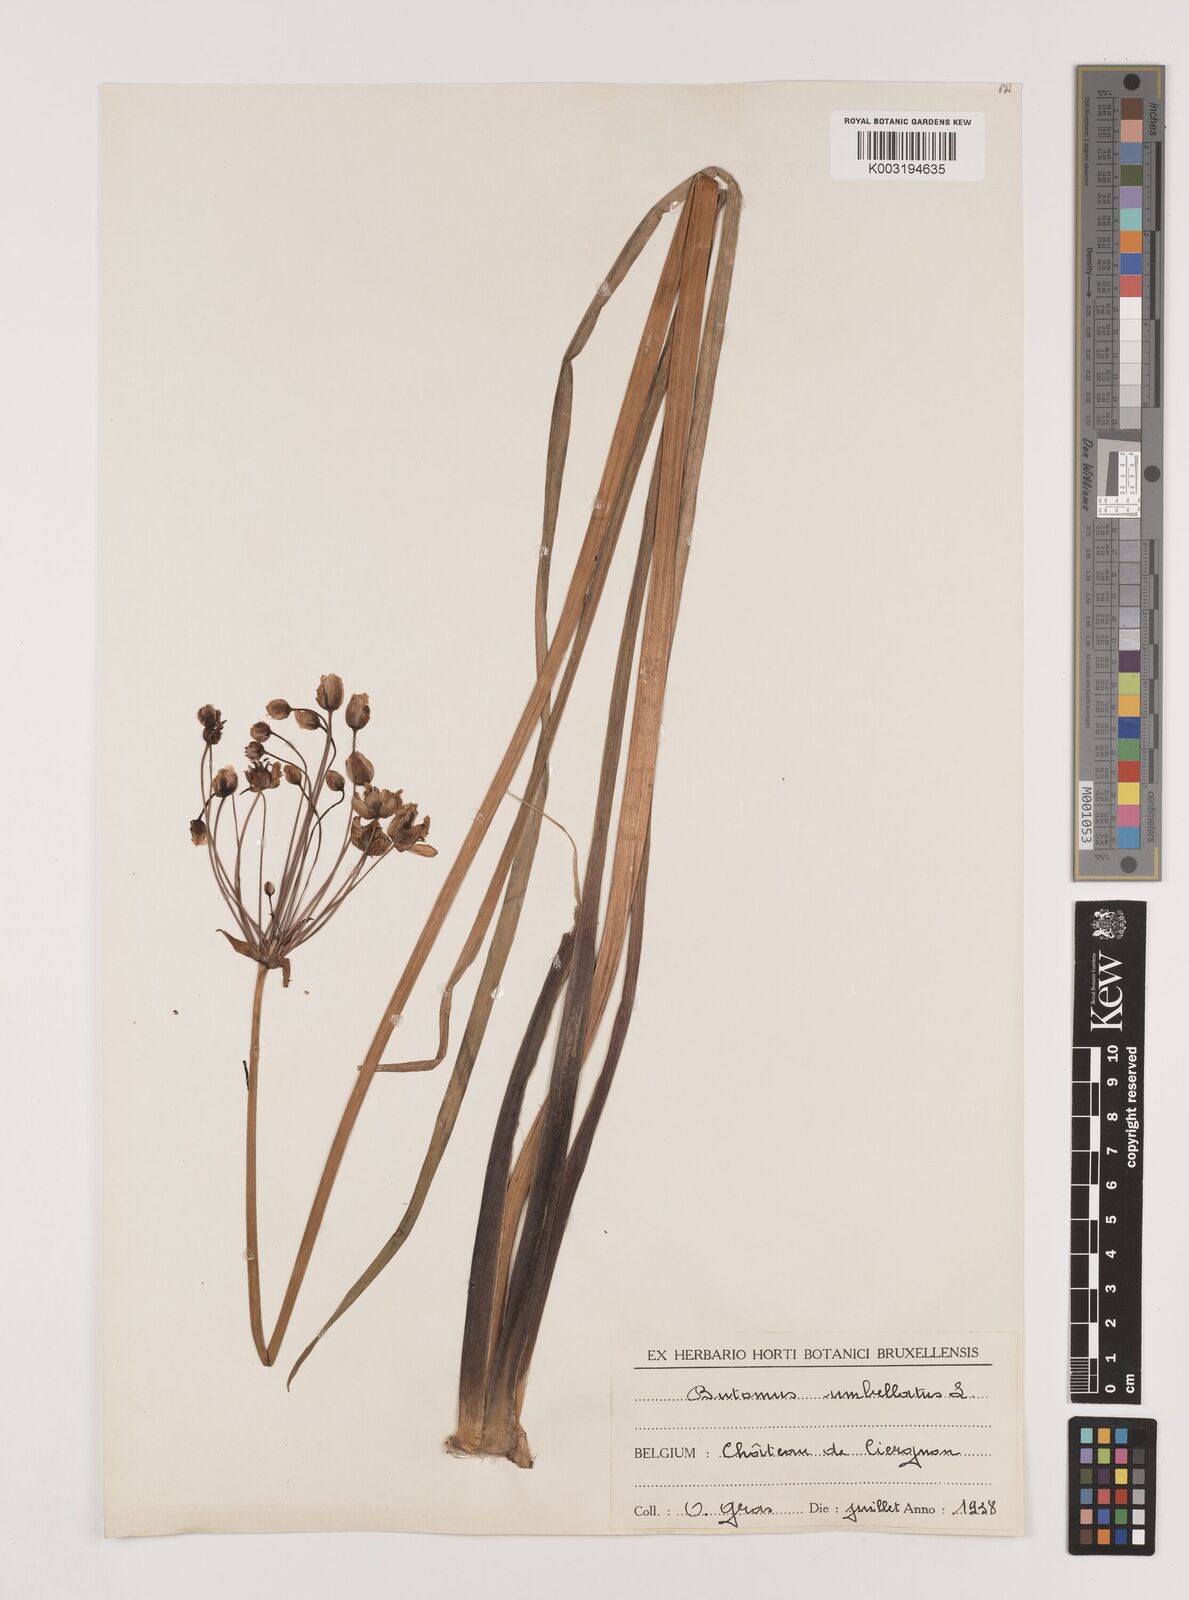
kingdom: Plantae
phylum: Tracheophyta
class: Liliopsida
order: Alismatales
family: Butomaceae
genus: Butomus
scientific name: Butomus umbellatus
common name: Flowering-rush
